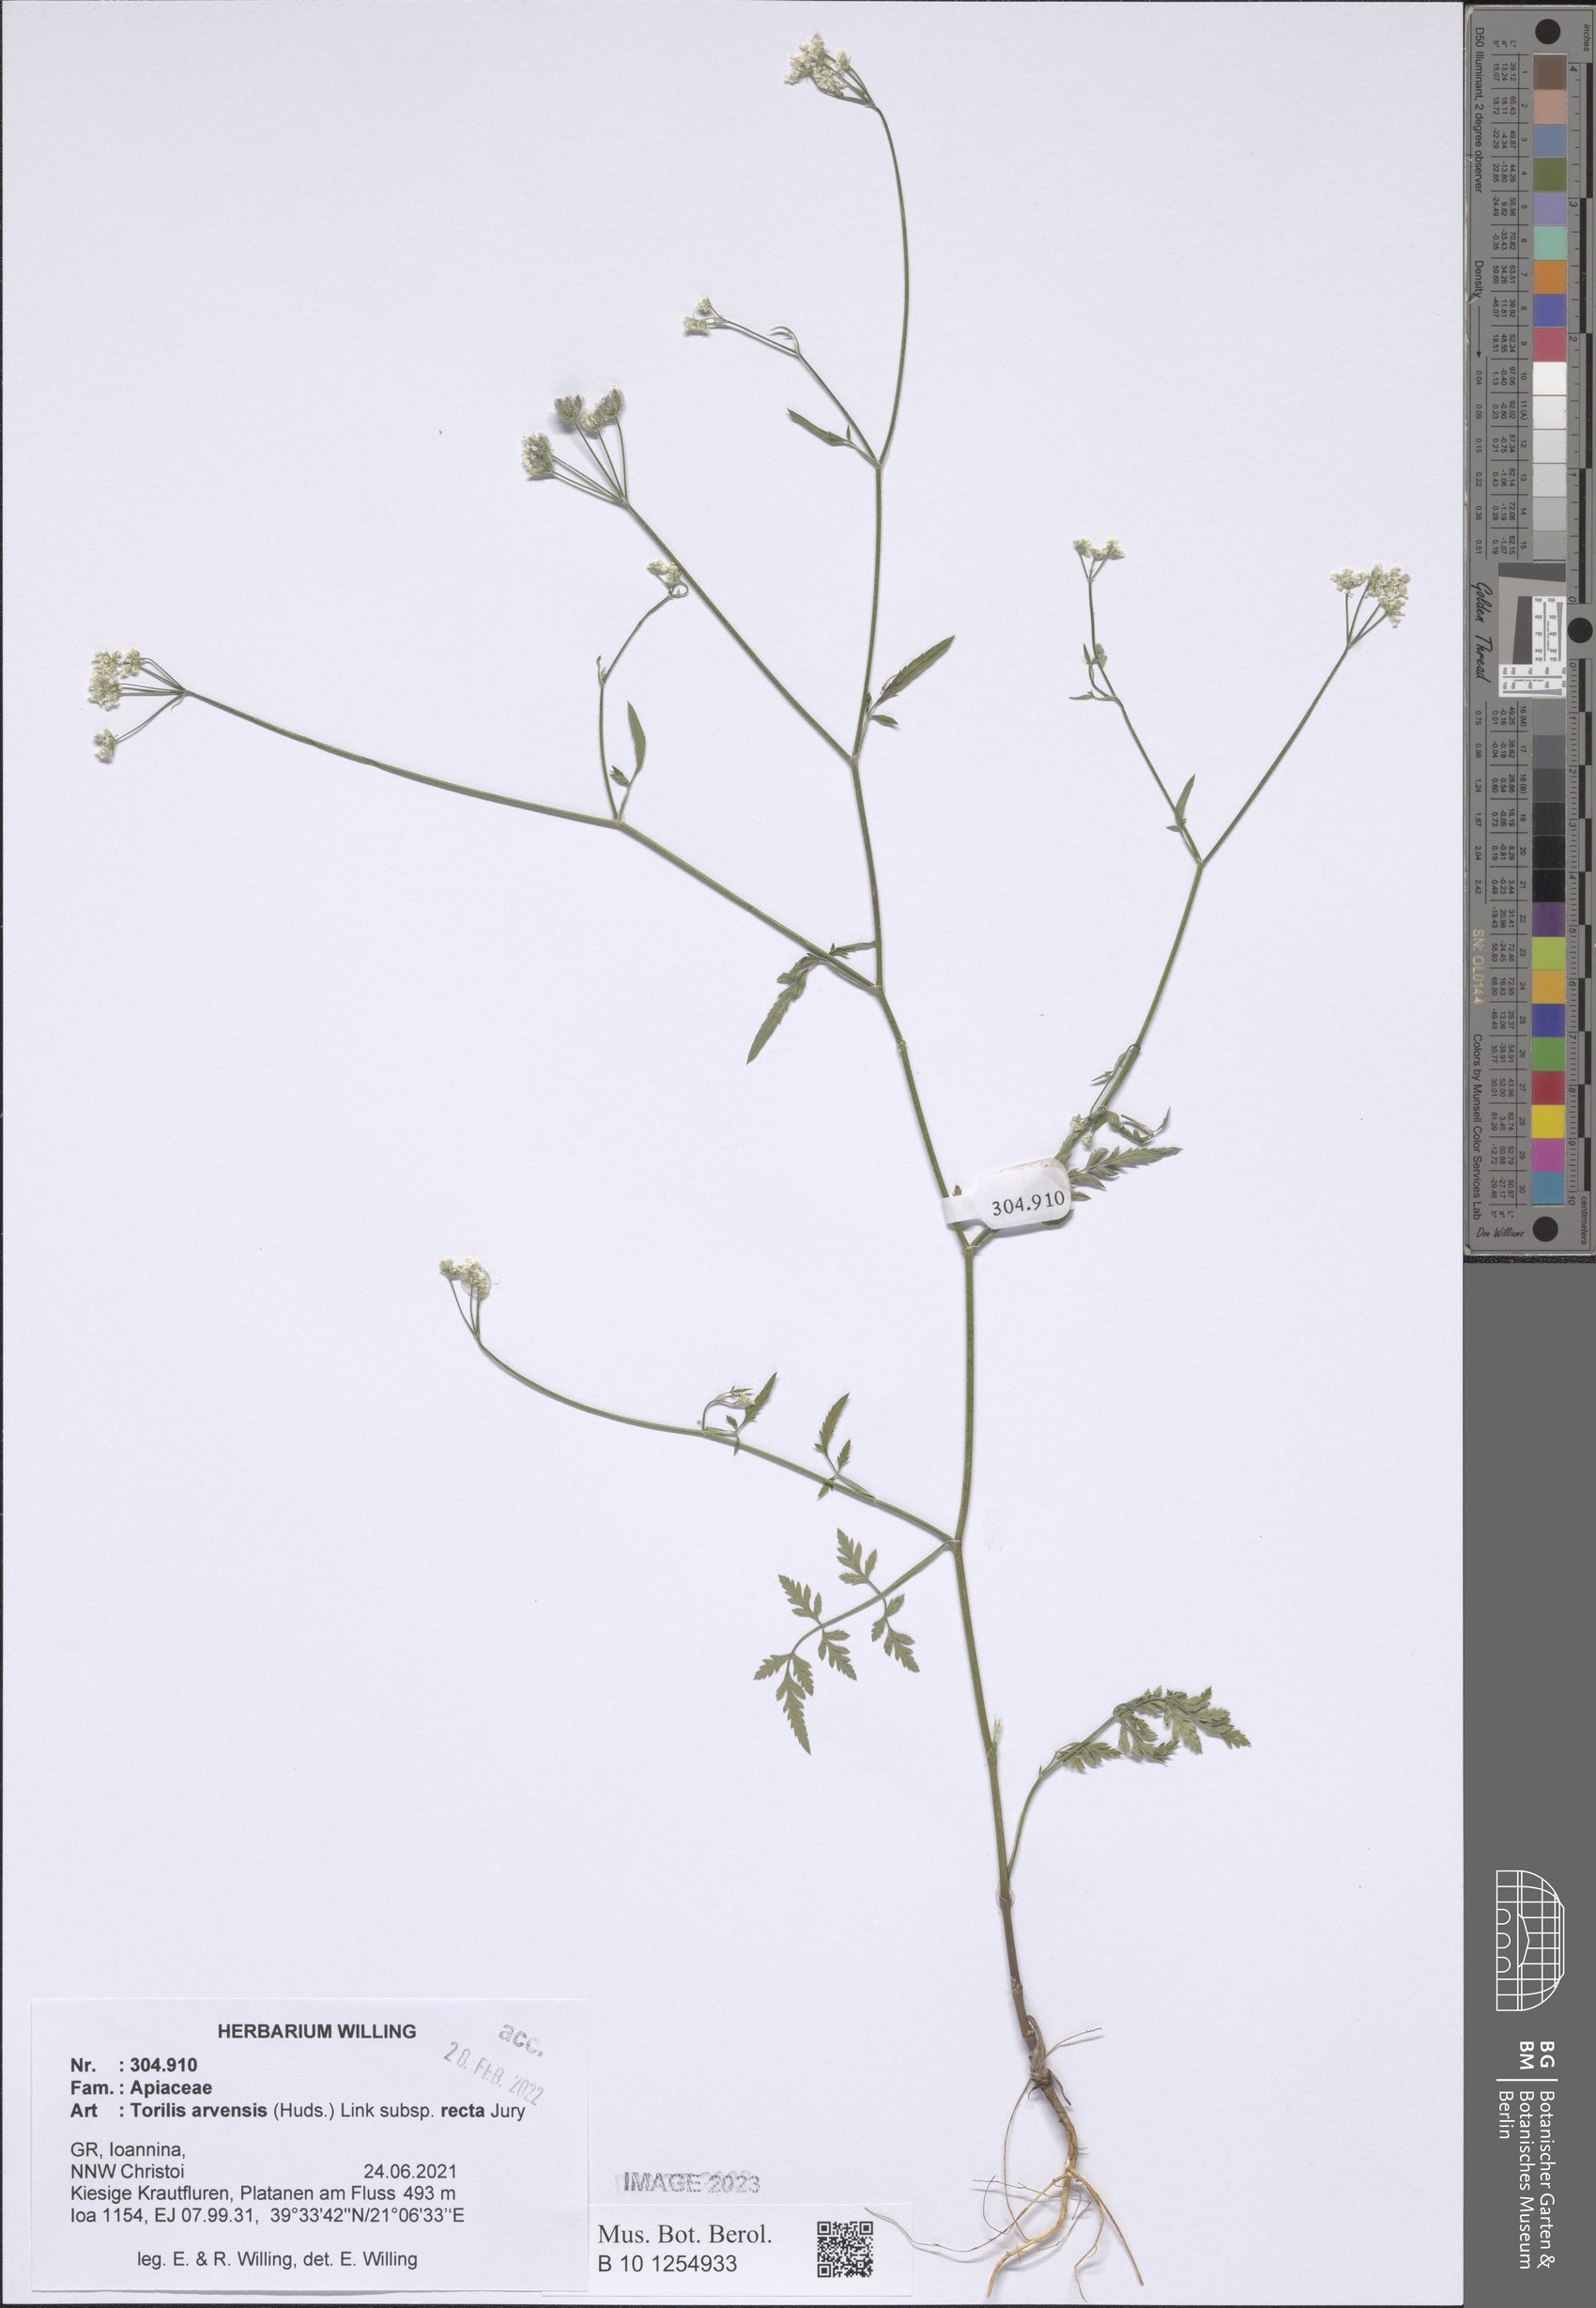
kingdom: Plantae
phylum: Tracheophyta
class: Magnoliopsida
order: Apiales
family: Apiaceae
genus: Torilis
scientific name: Torilis arvensis
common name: Spreading hedge-parsley
